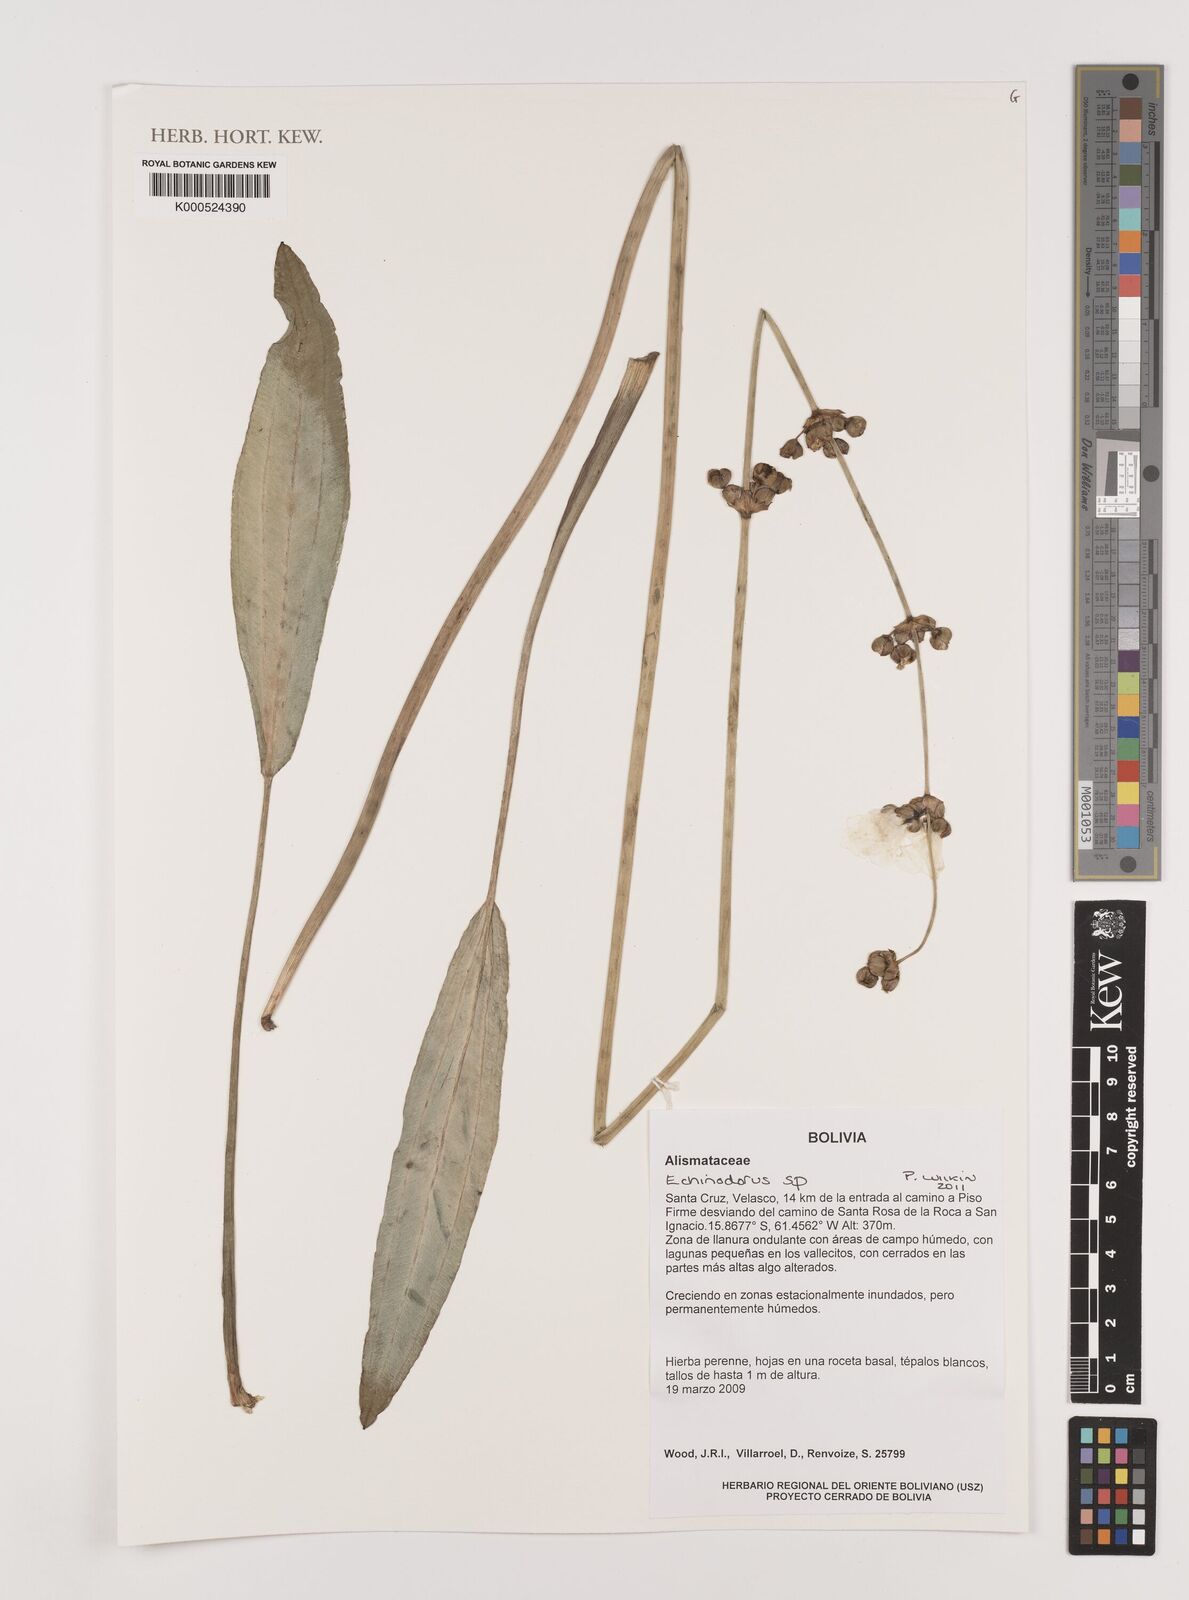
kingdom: Plantae
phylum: Tracheophyta
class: Liliopsida
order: Alismatales
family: Alismataceae
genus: Echinodorus
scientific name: Echinodorus
